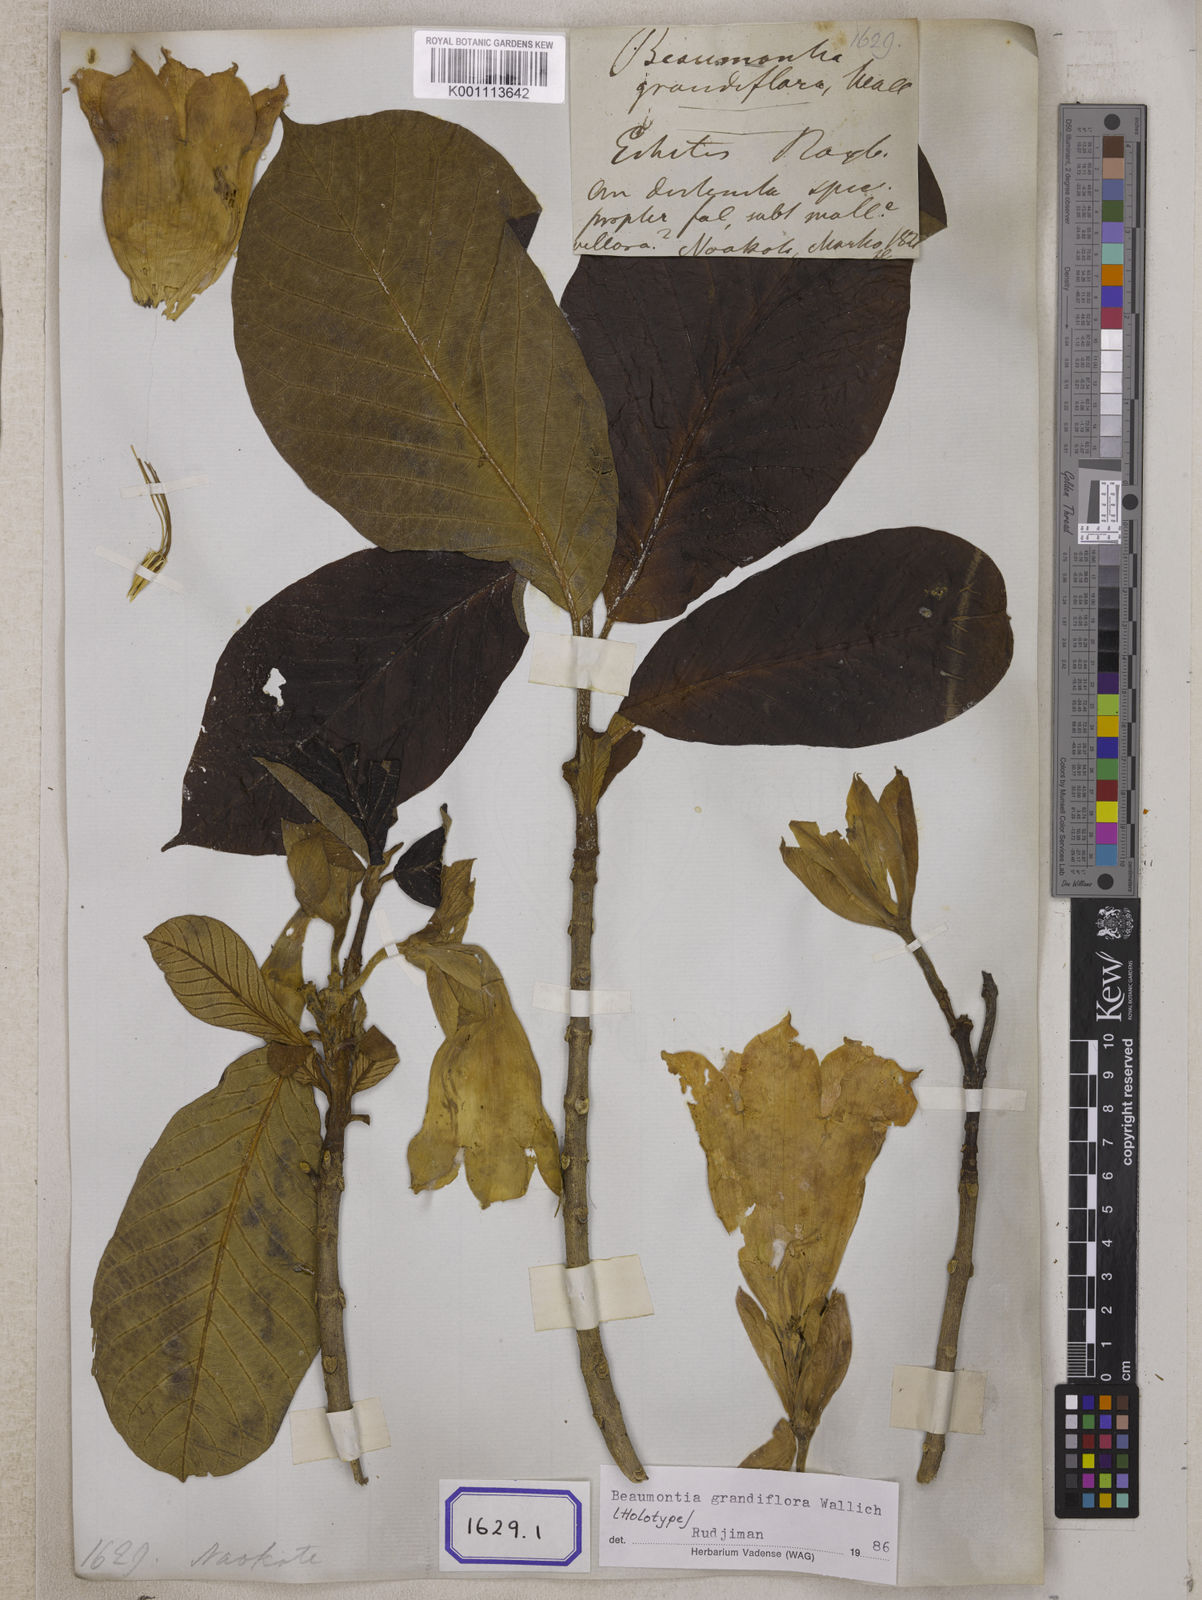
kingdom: Plantae
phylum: Tracheophyta
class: Magnoliopsida
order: Gentianales
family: Apocynaceae
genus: Beaumontia
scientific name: Beaumontia grandiflora
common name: Easter-lily-vine
